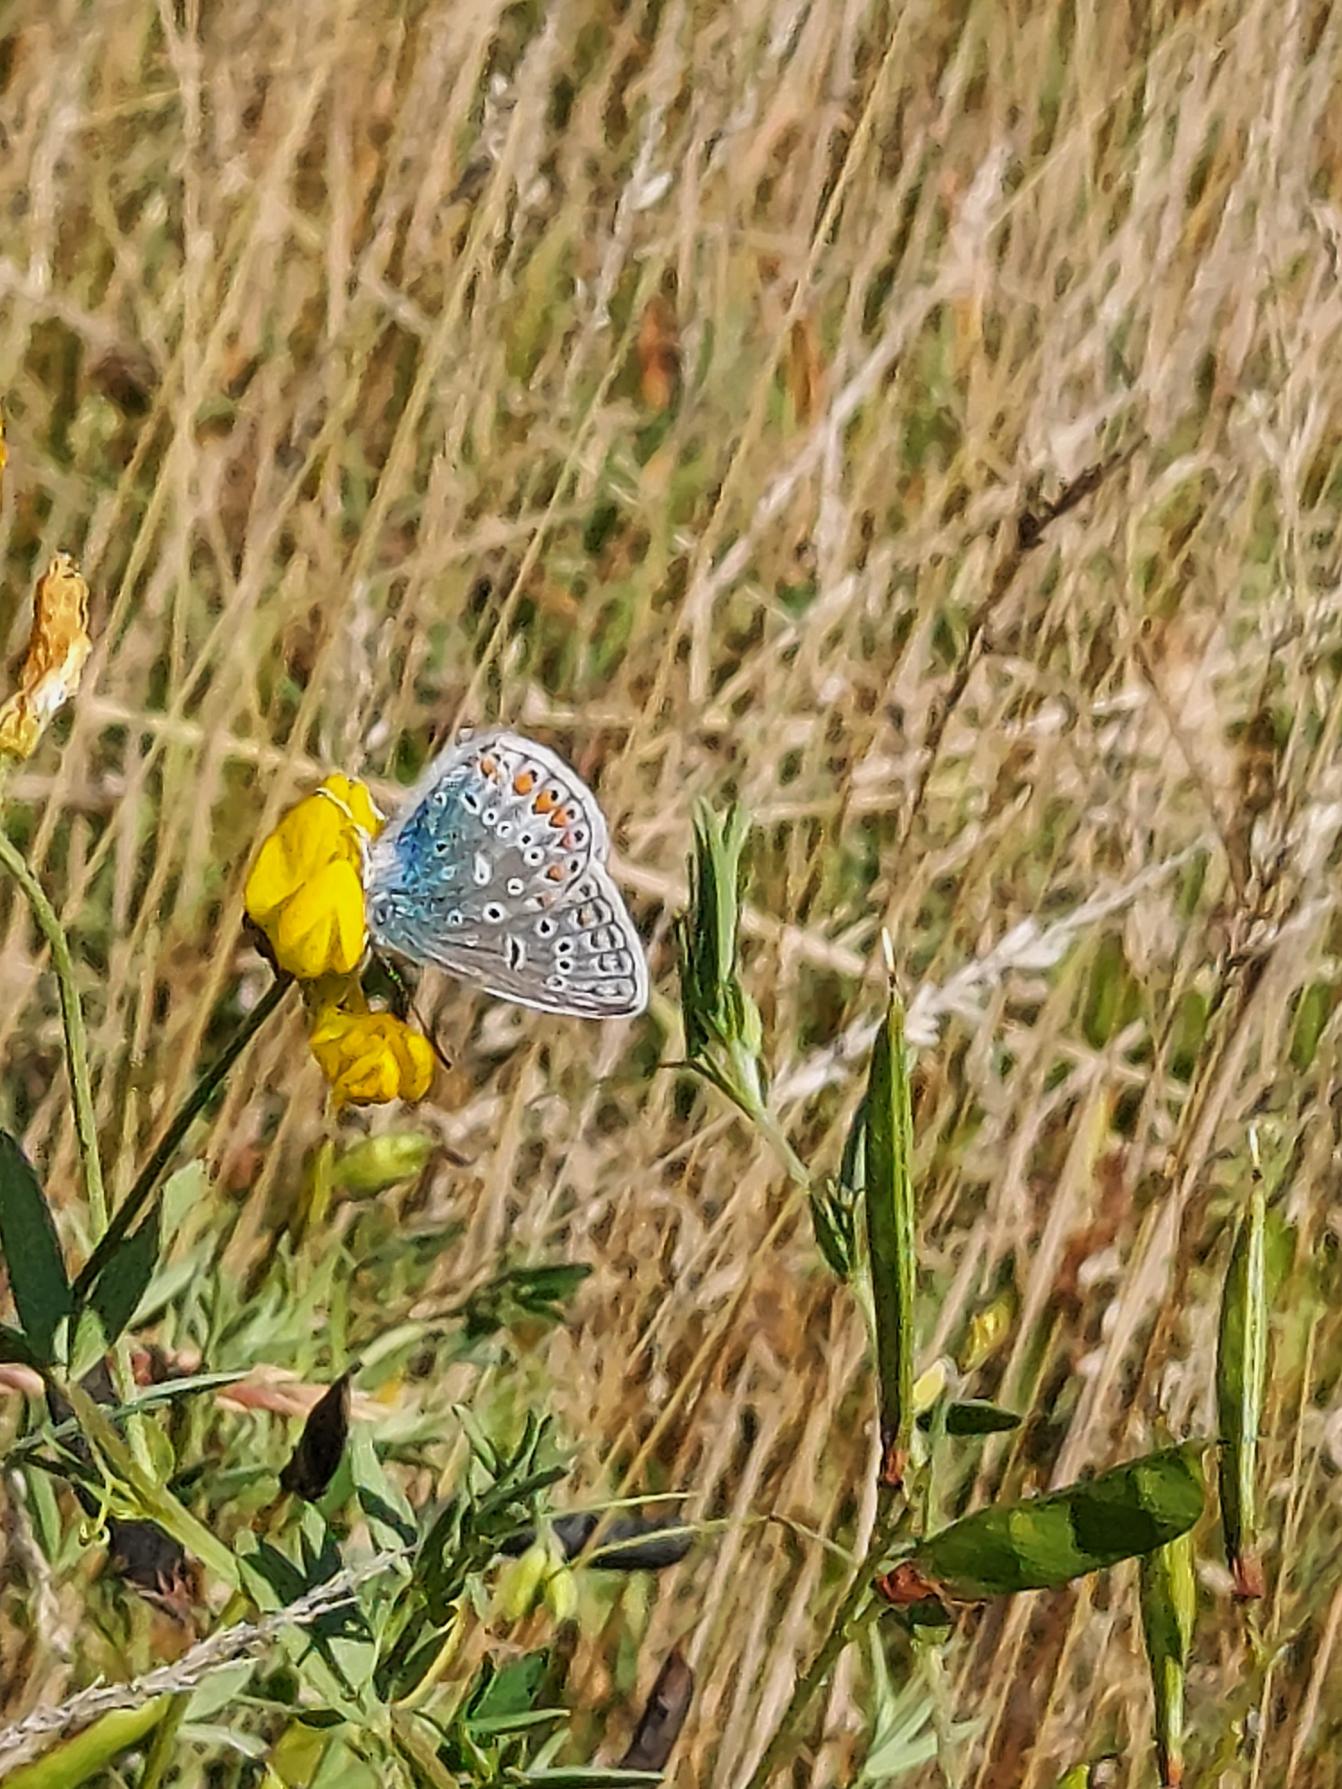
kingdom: Animalia
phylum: Arthropoda
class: Insecta
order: Lepidoptera
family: Lycaenidae
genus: Polyommatus
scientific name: Polyommatus icarus
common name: Almindelig blåfugl
